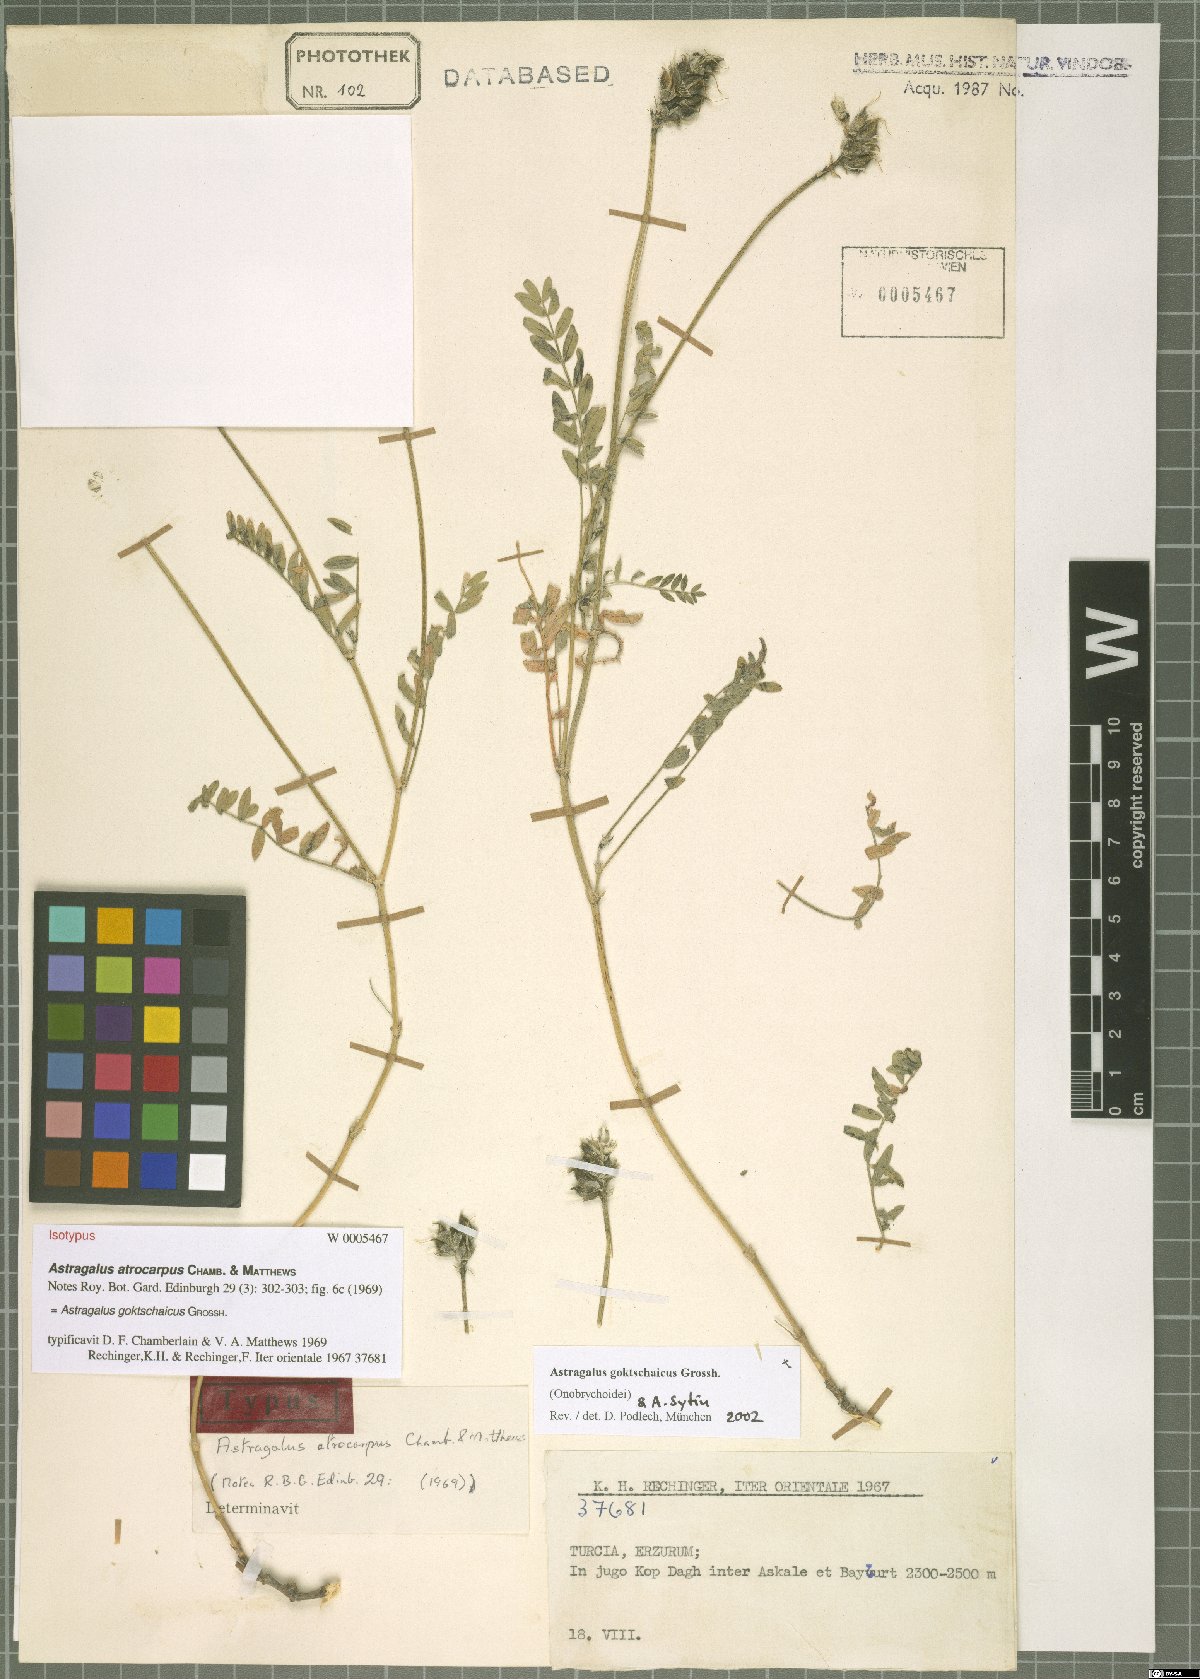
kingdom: Plantae
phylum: Tracheophyta
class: Magnoliopsida
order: Fabales
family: Fabaceae
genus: Astragalus
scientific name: Astragalus onobrychis
